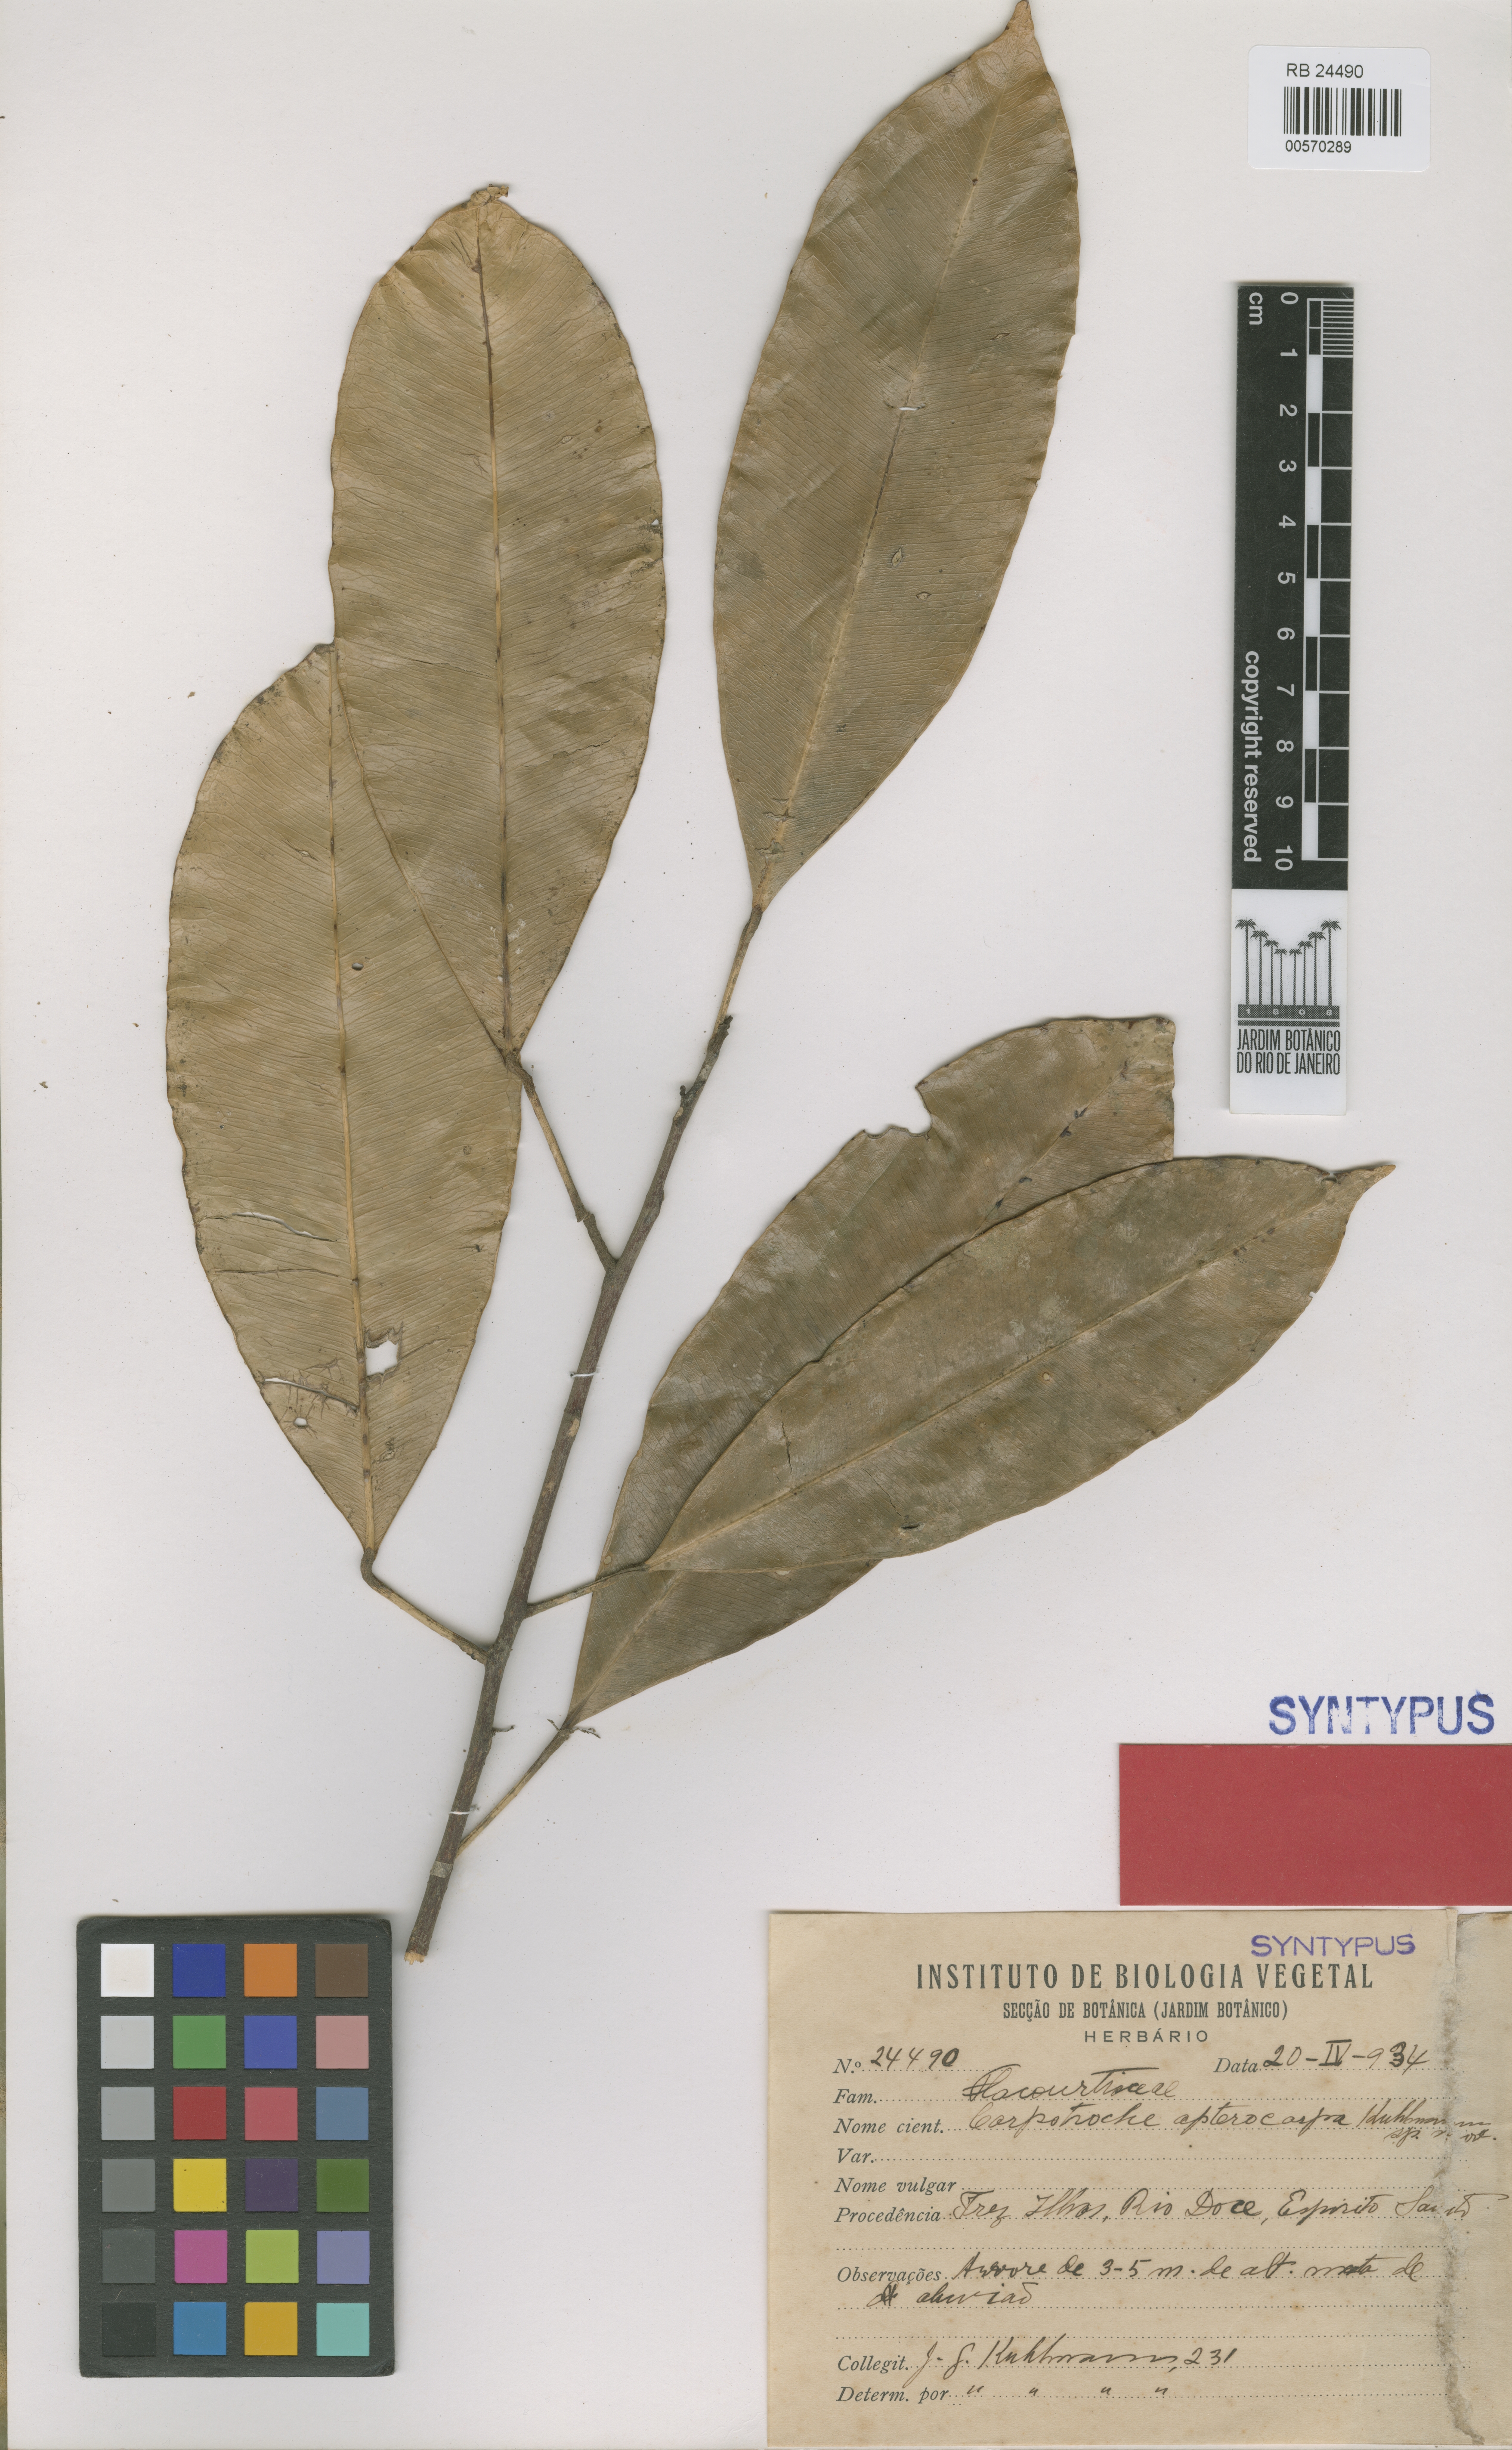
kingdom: Plantae
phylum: Tracheophyta
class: Magnoliopsida
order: Malpighiales
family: Achariaceae
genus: Kuhlmanniodendron
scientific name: Kuhlmanniodendron apterocarpum
